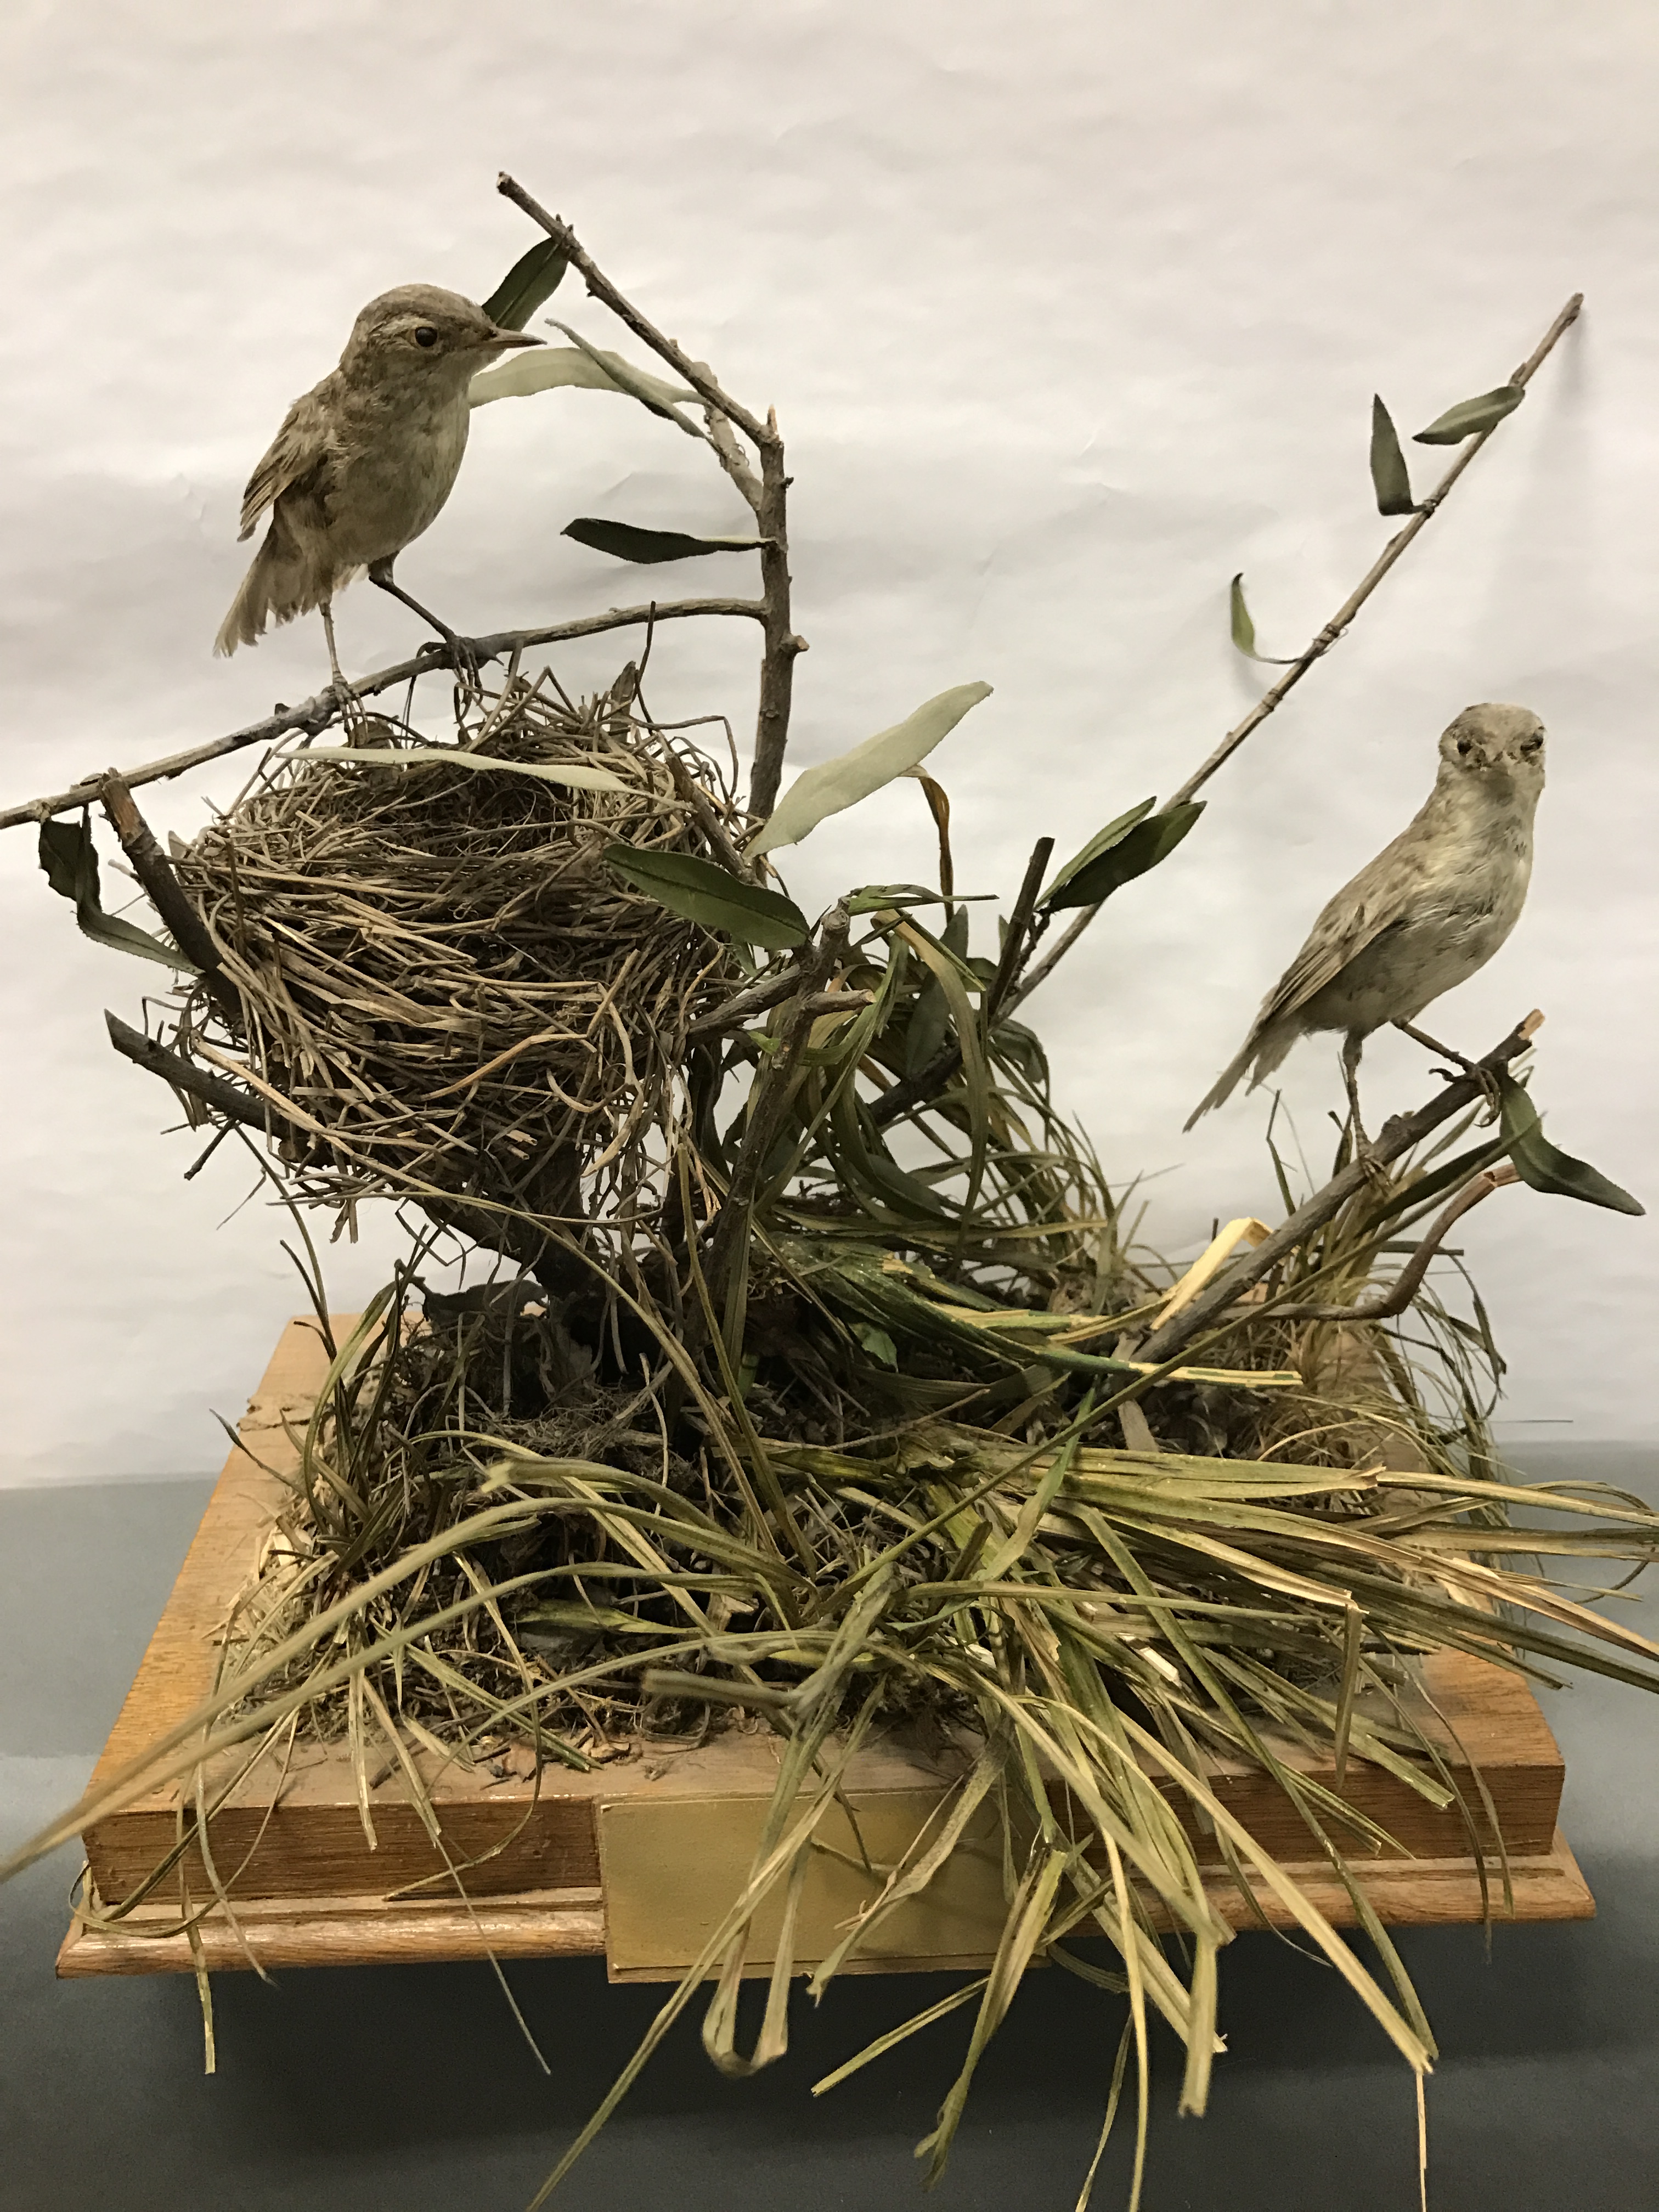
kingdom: Animalia
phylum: Chordata
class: Aves
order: Passeriformes
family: Locustellidae
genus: Locustella
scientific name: Locustella naevia
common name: Common grasshopper warbler
